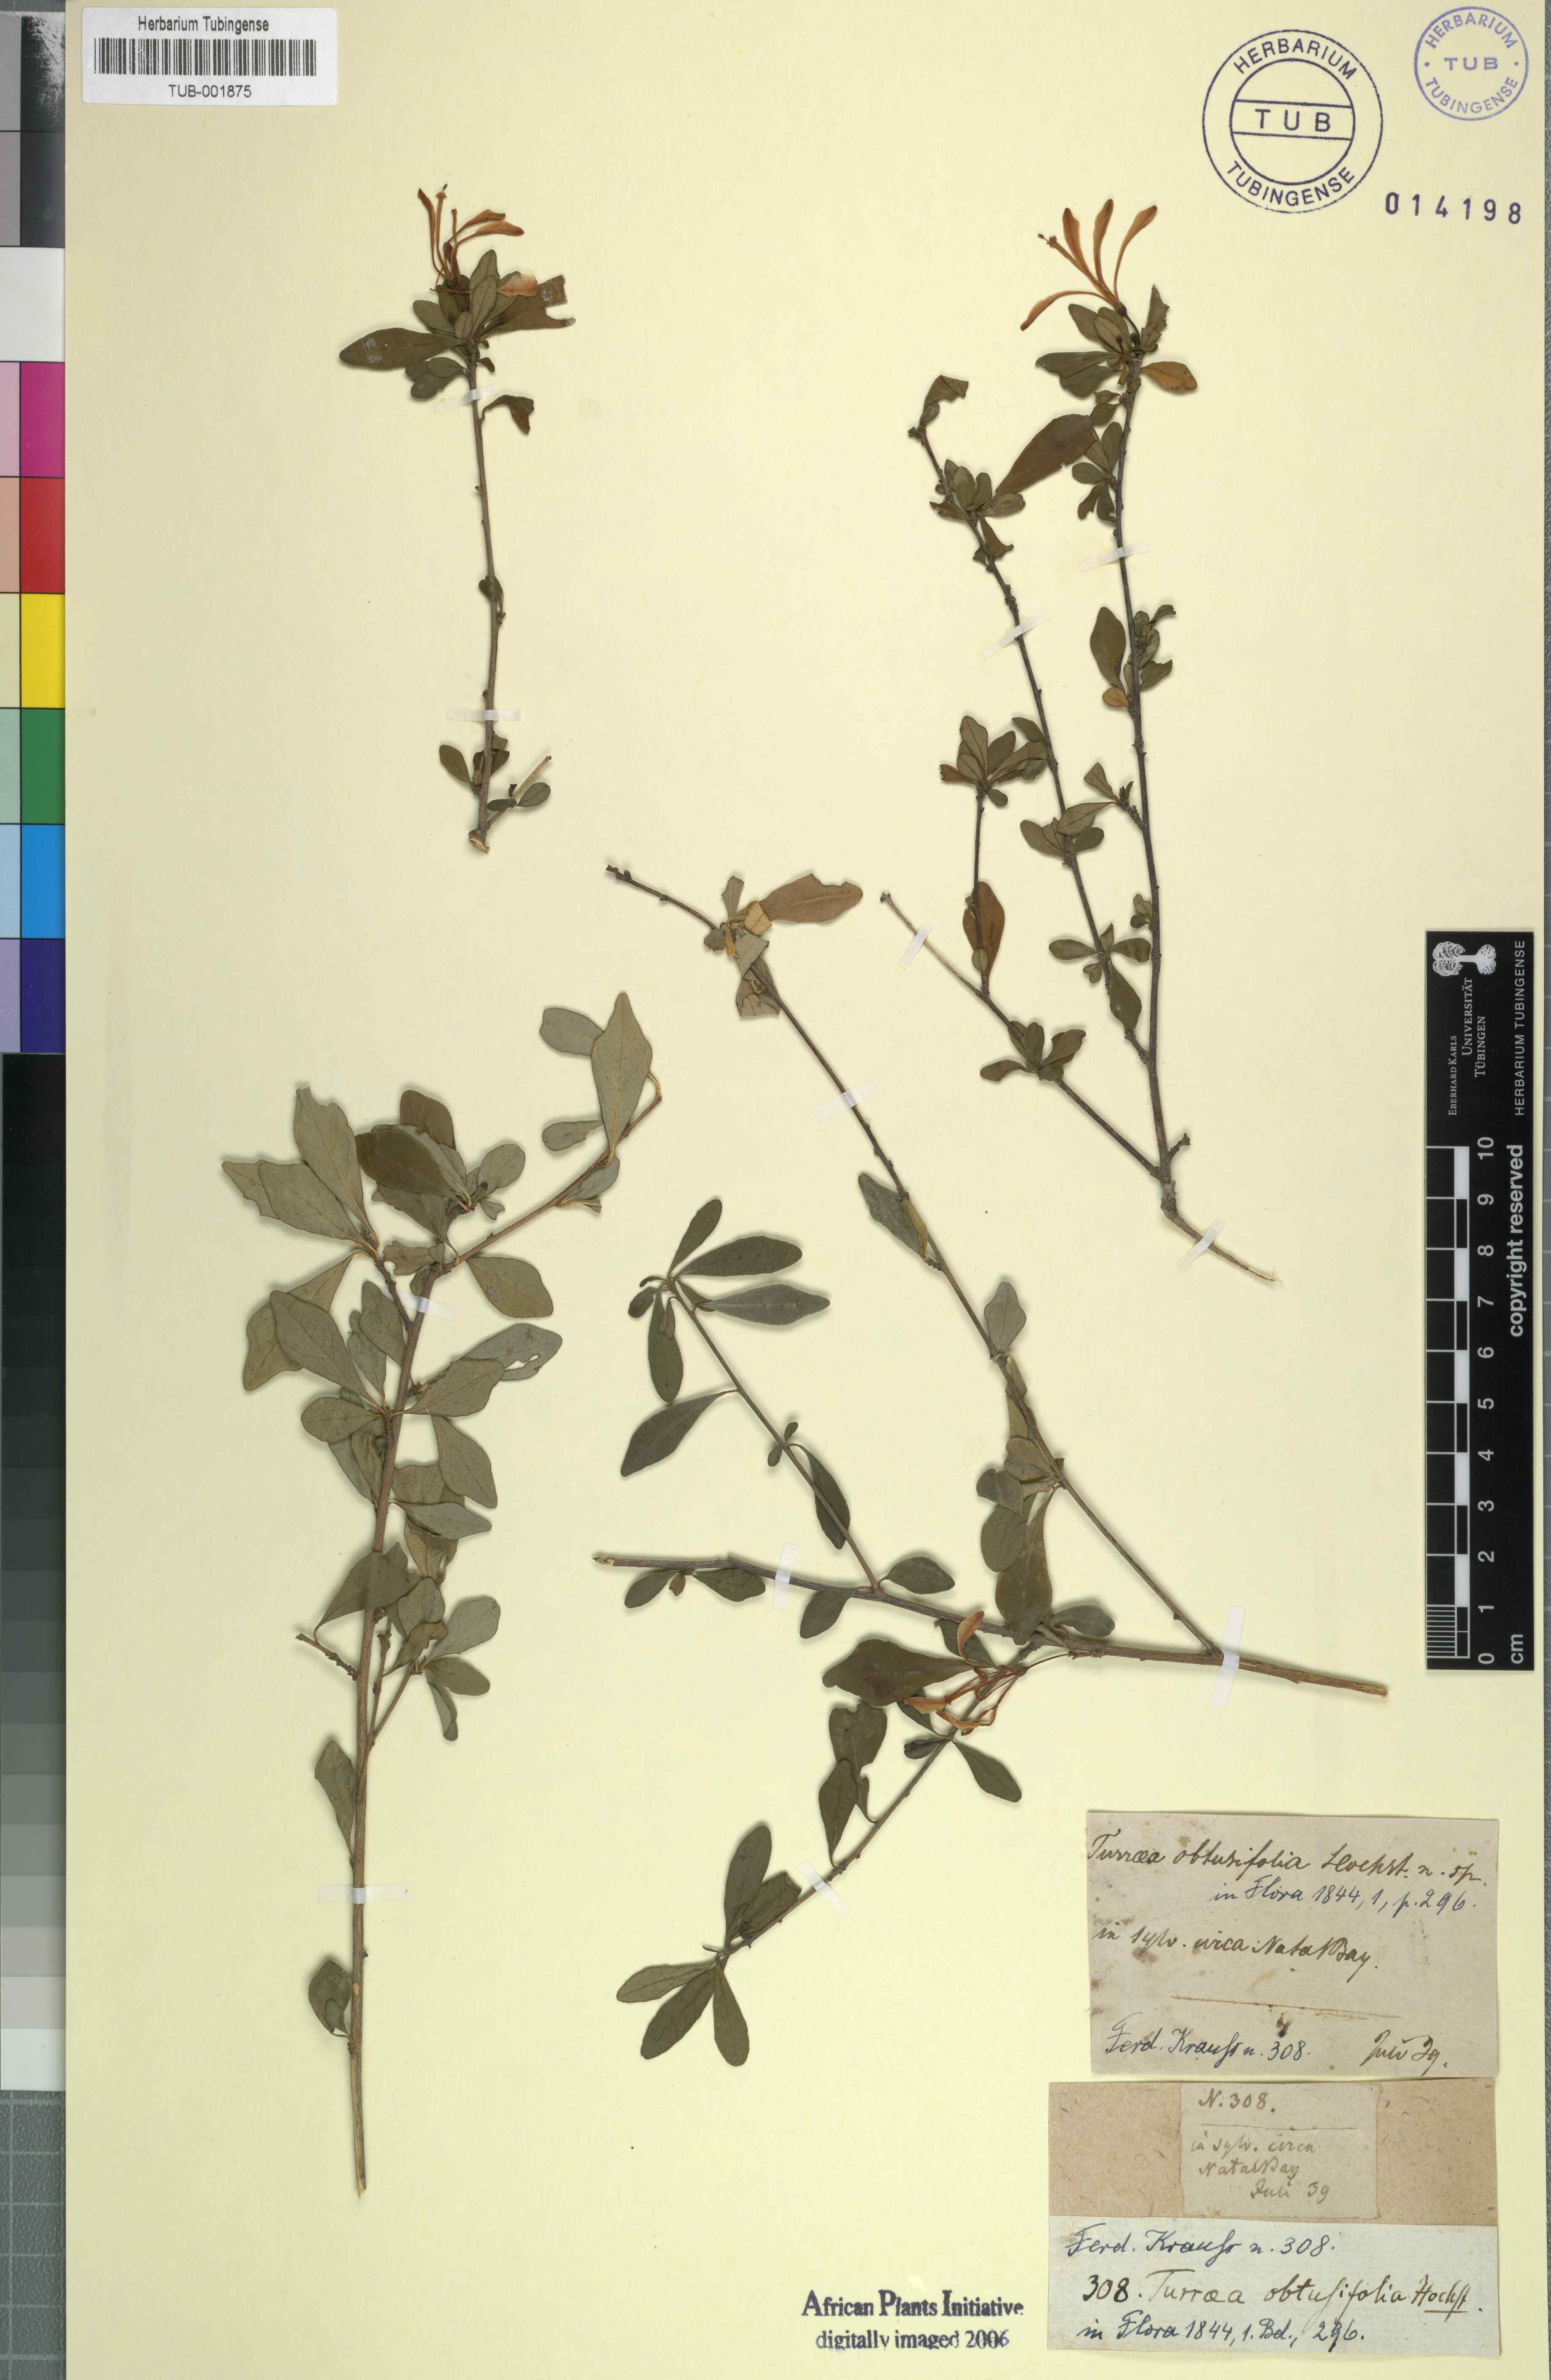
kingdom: Plantae
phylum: Tracheophyta
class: Magnoliopsida
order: Sapindales
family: Meliaceae
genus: Turraea
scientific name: Turraea obtusifolia
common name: Small honeysuckle tree
